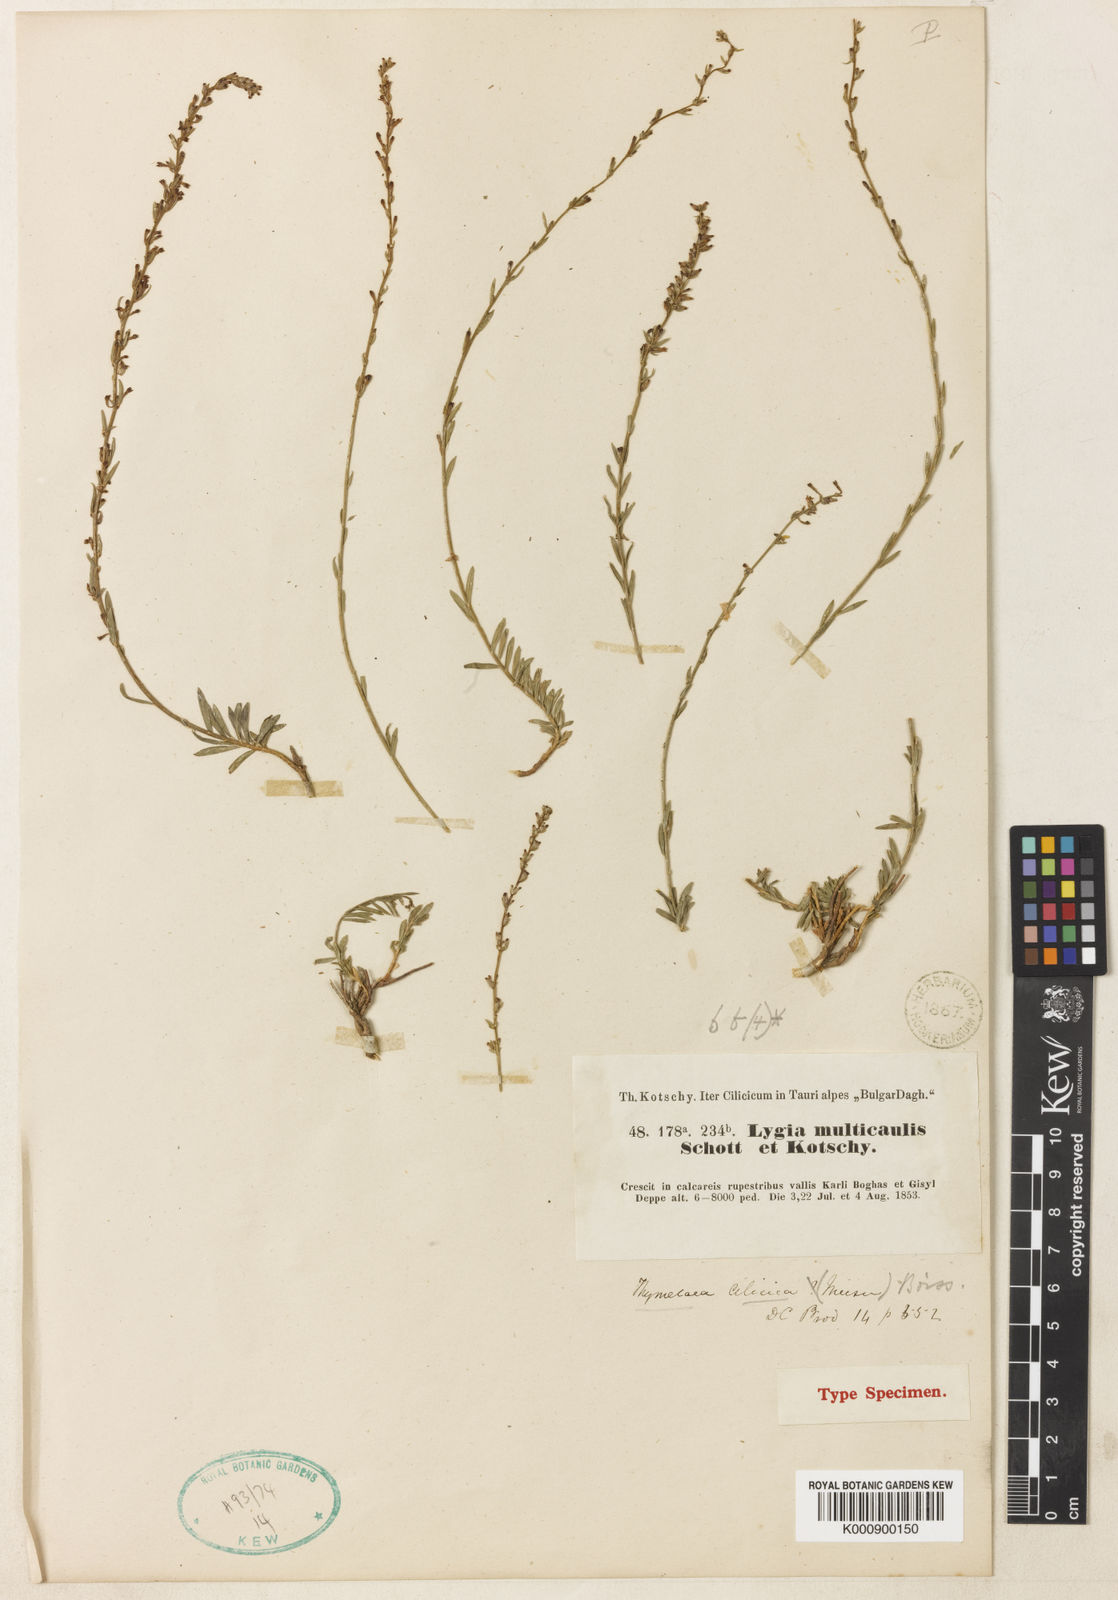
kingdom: Plantae
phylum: Tracheophyta
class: Magnoliopsida
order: Malvales
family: Thymelaeaceae
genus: Thymelaea
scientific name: Thymelaea cilicica
